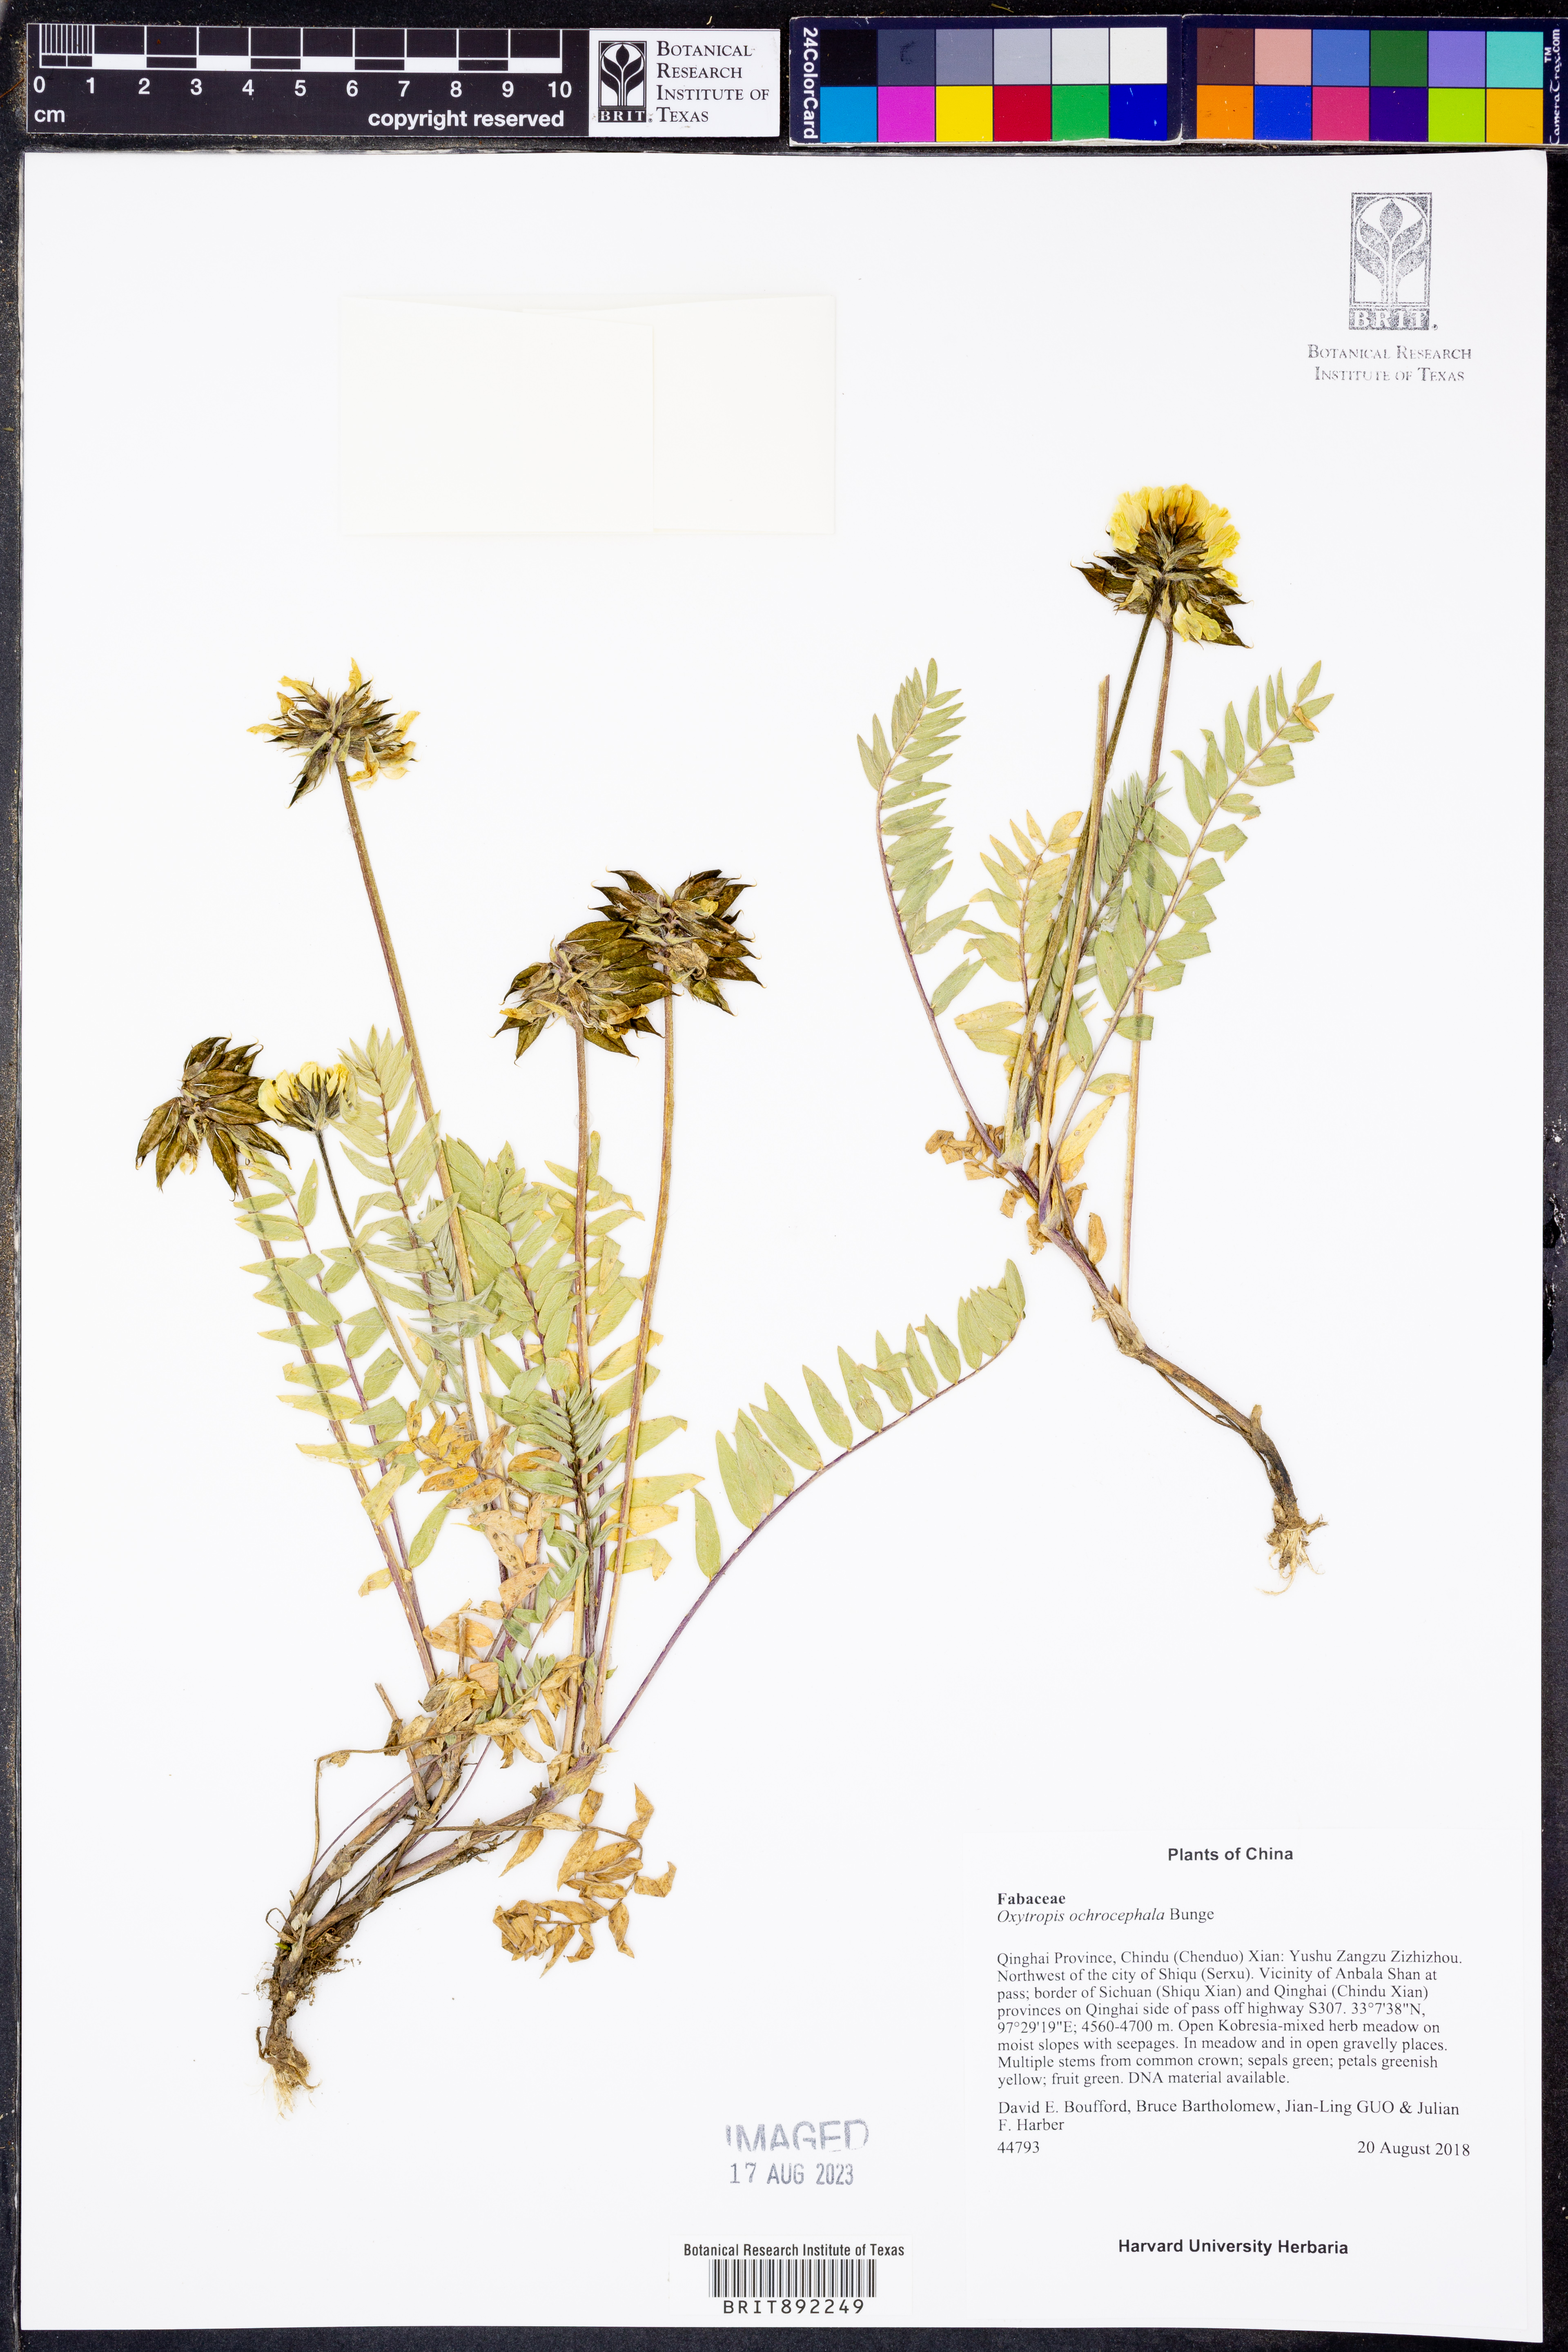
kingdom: Plantae
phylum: Tracheophyta
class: Magnoliopsida
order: Fabales
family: Fabaceae
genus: Oxytropis
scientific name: Oxytropis ochrocephala
